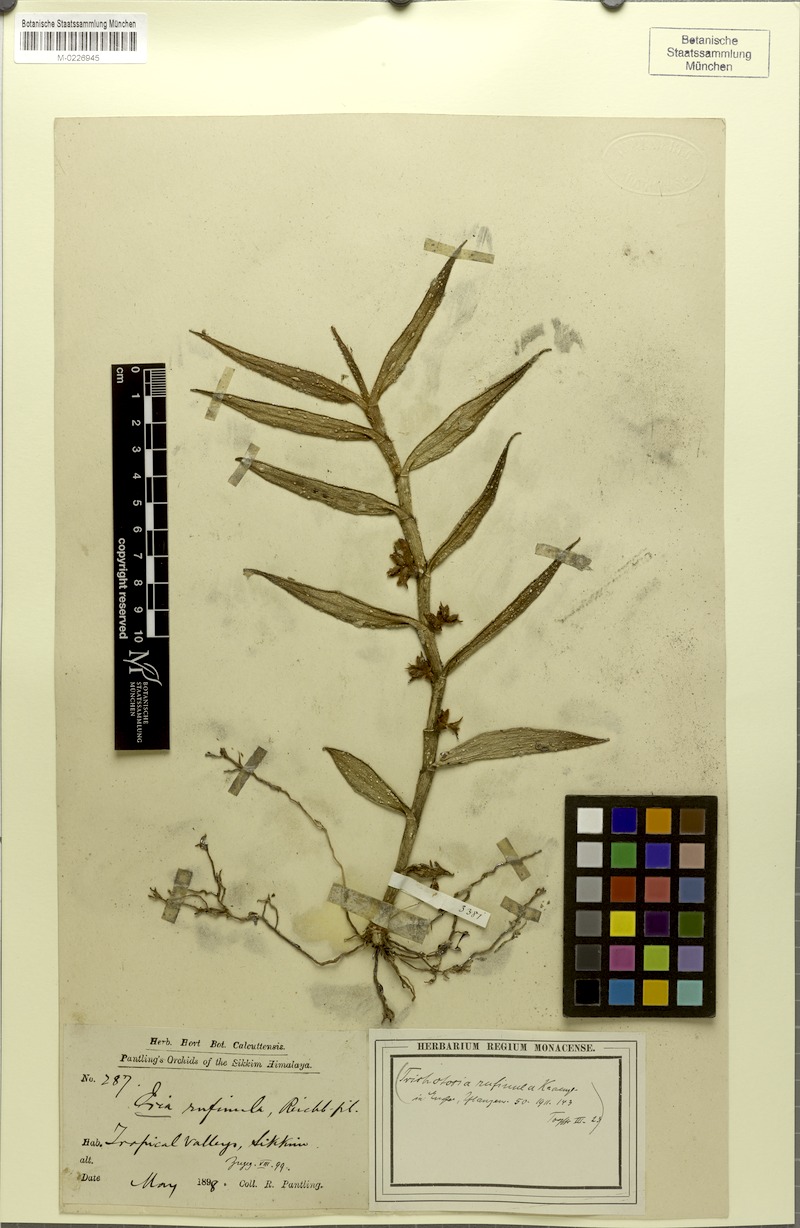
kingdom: Plantae
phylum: Tracheophyta
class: Liliopsida
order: Asparagales
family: Orchidaceae
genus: Trichotosia
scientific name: Trichotosia pulvinata
